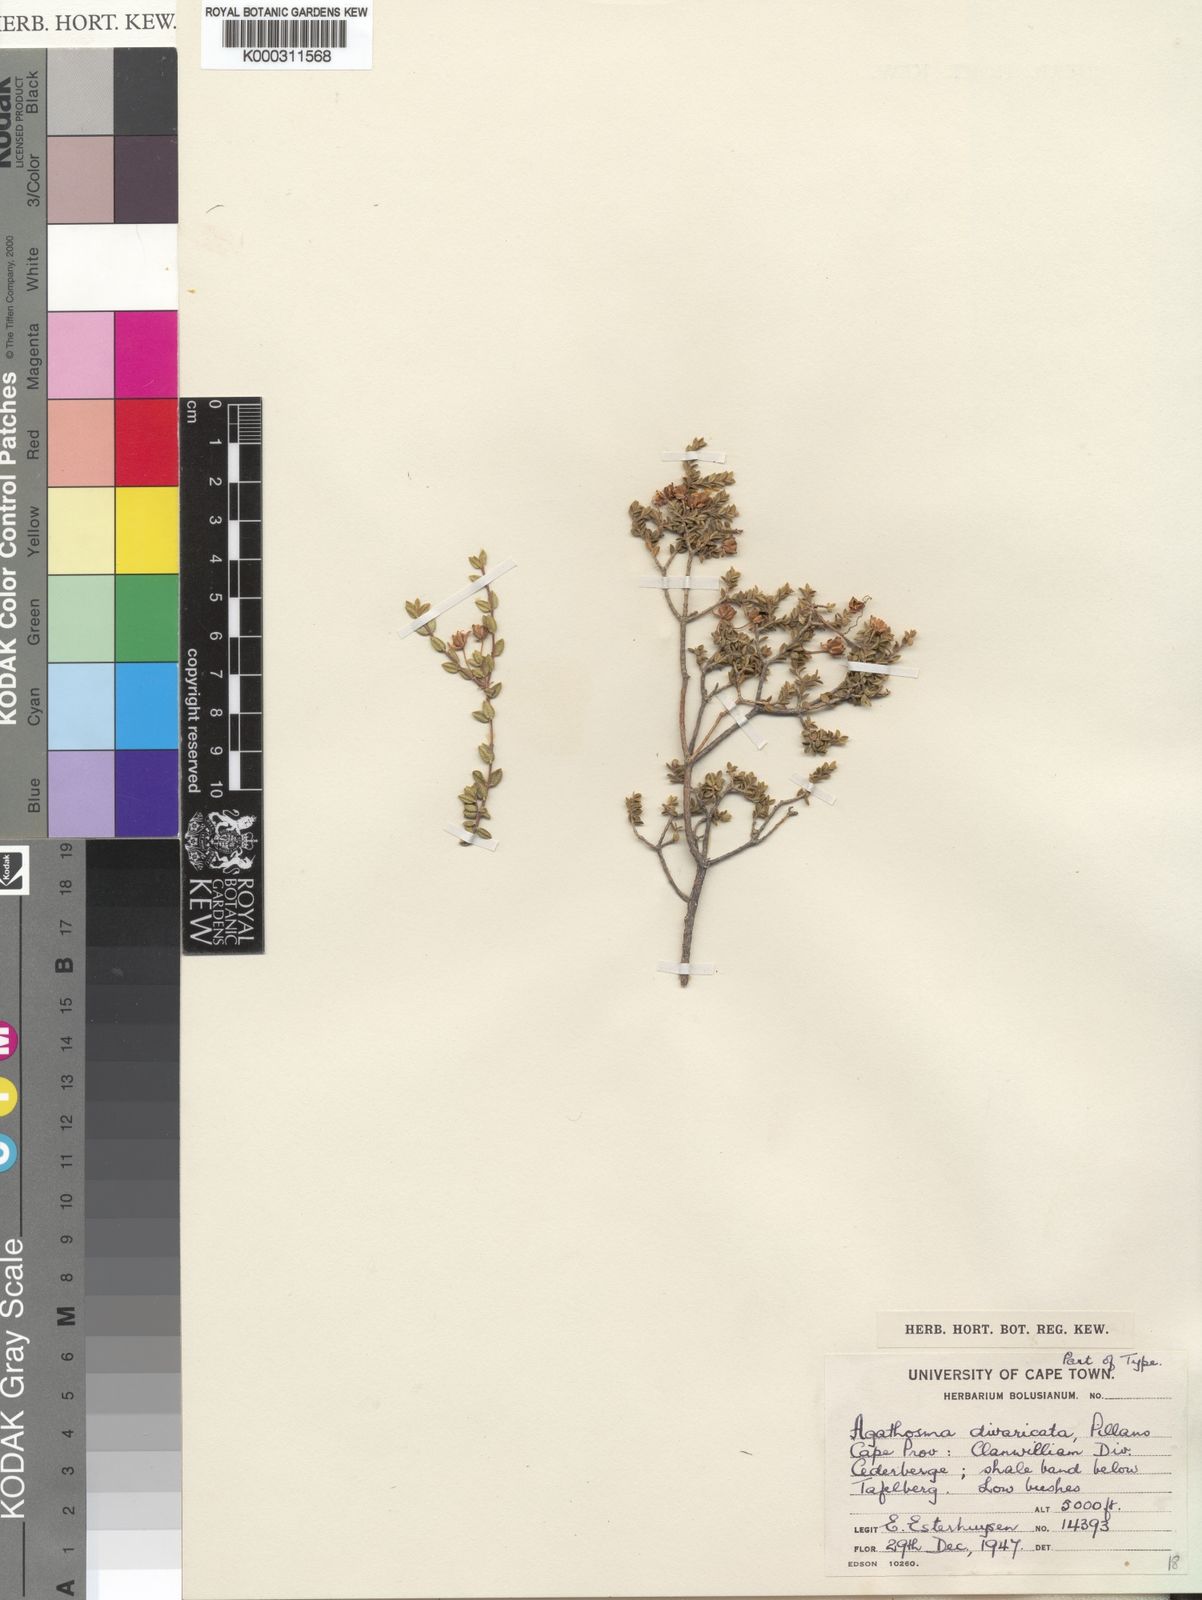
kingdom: Plantae
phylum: Tracheophyta
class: Magnoliopsida
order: Sapindales
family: Rutaceae
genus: Agathosma
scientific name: Agathosma divaricata
